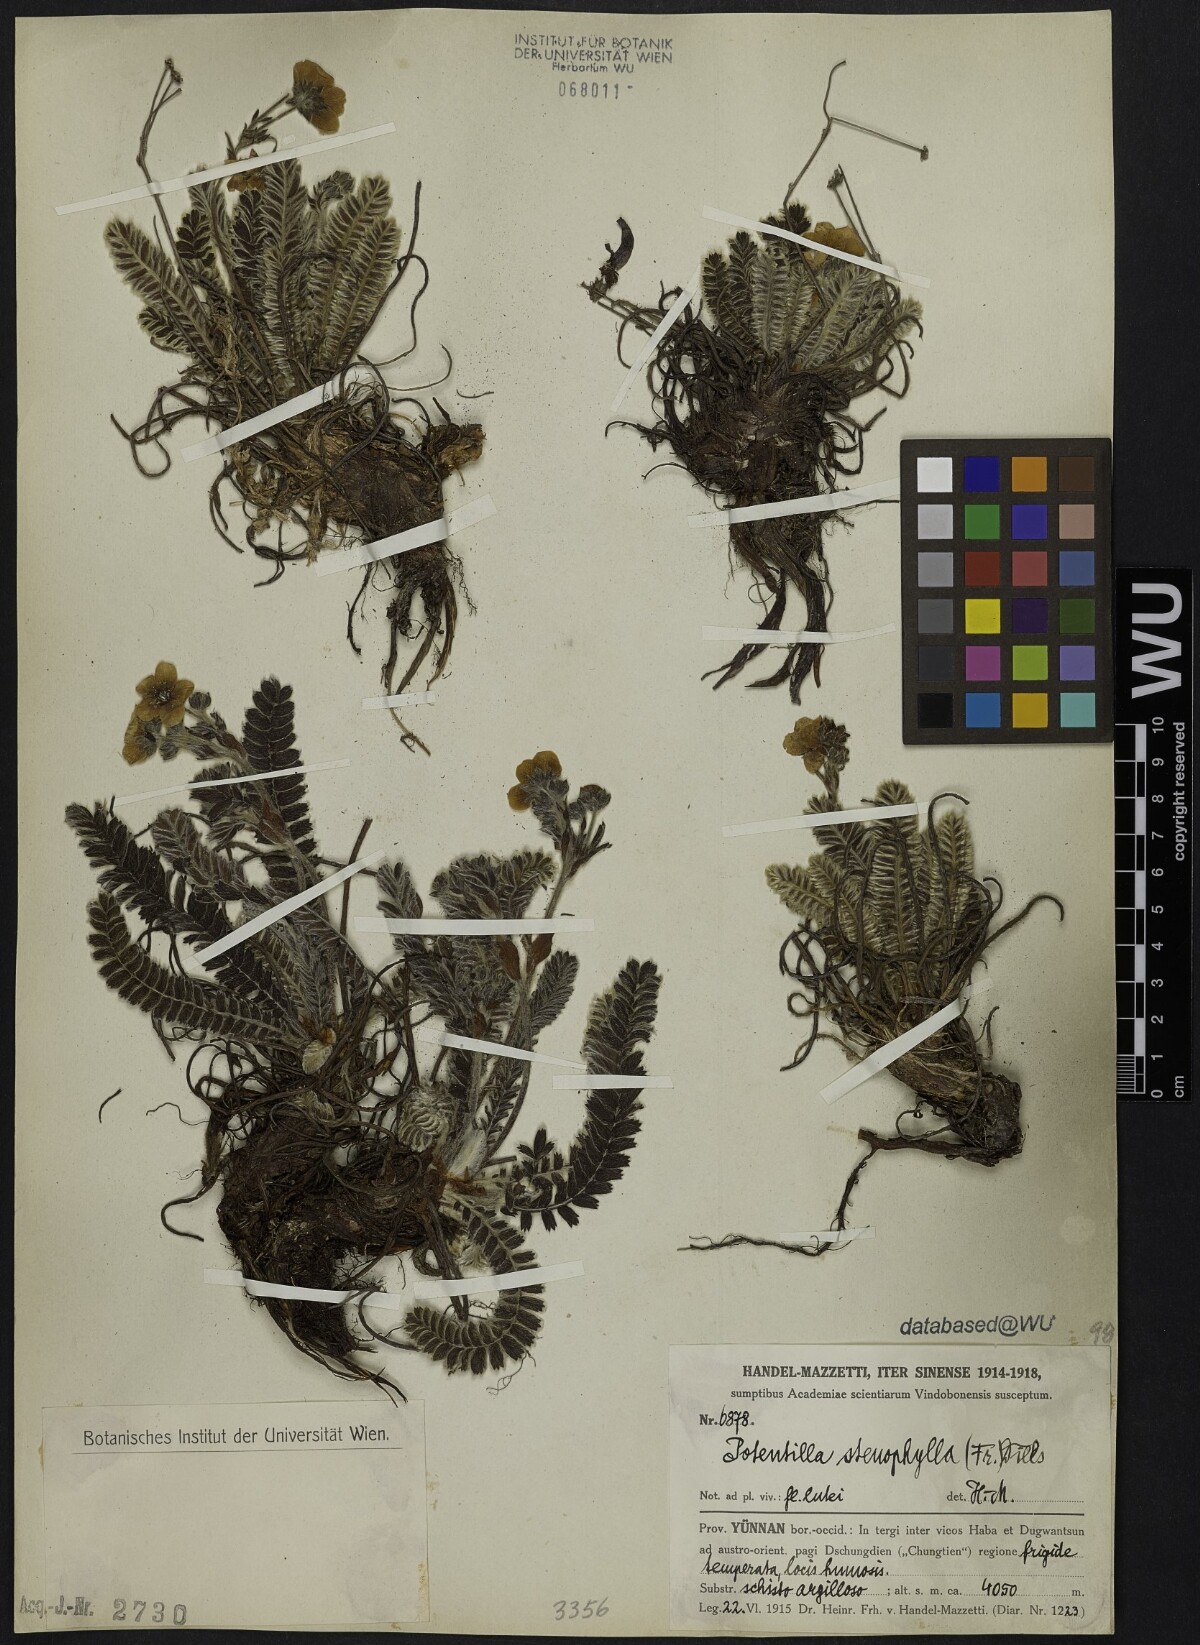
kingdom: Plantae
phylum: Tracheophyta
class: Magnoliopsida
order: Rosales
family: Rosaceae
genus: Argentina
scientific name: Argentina stenophylla
